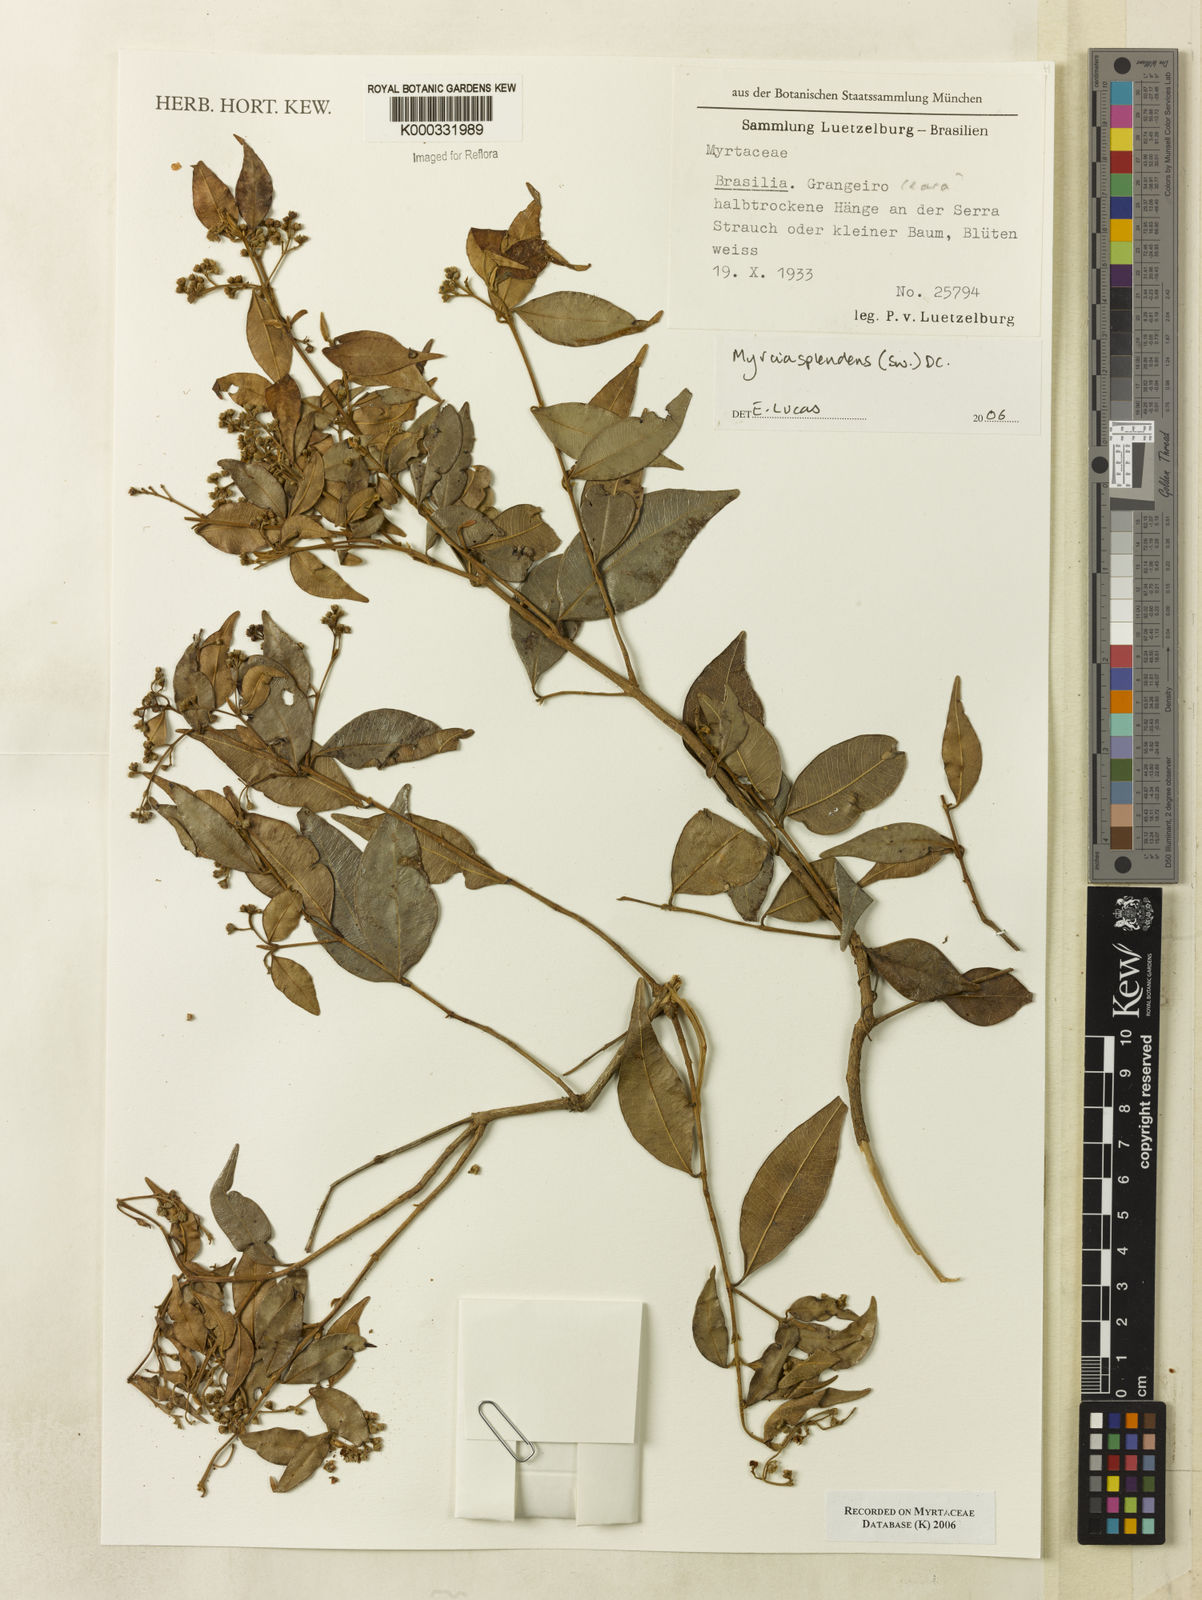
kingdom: Plantae
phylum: Tracheophyta
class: Magnoliopsida
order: Myrtales
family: Myrtaceae
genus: Myrcia
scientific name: Myrcia splendens
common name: Surinam cherry
